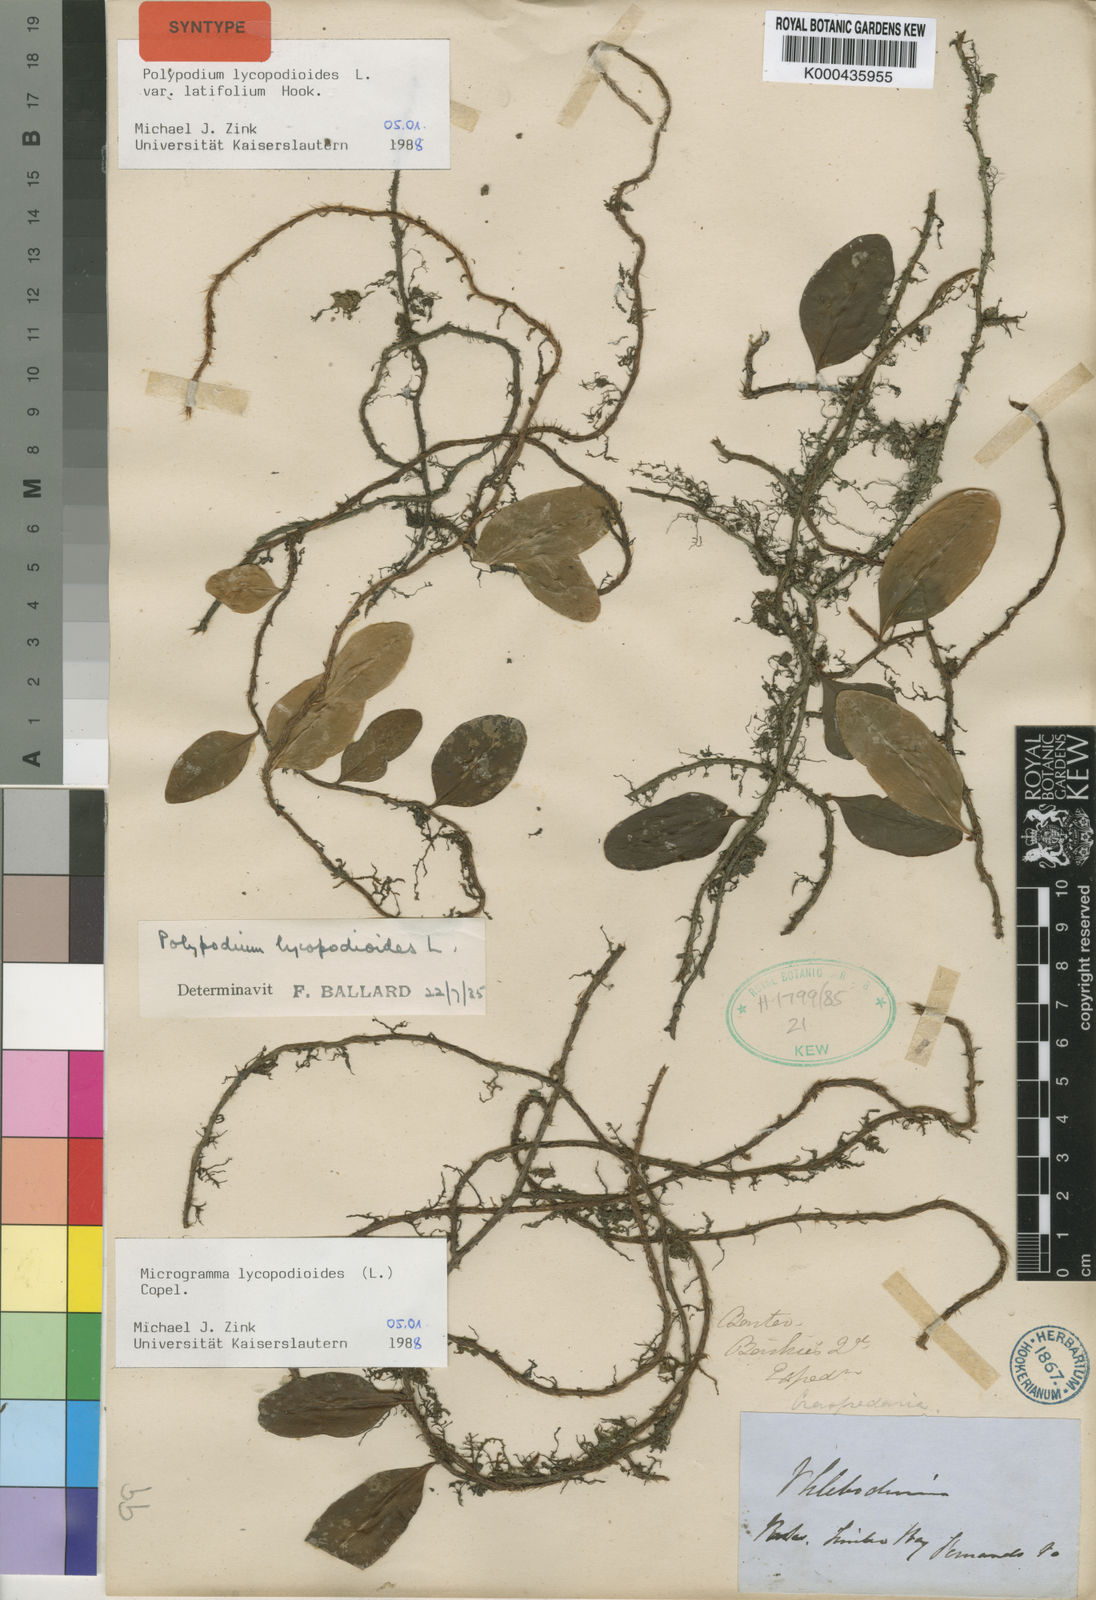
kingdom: Plantae
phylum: Tracheophyta
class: Polypodiopsida
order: Polypodiales
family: Polypodiaceae
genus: Microgramma
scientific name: Microgramma lycopodioides
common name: Bastard catclaw
